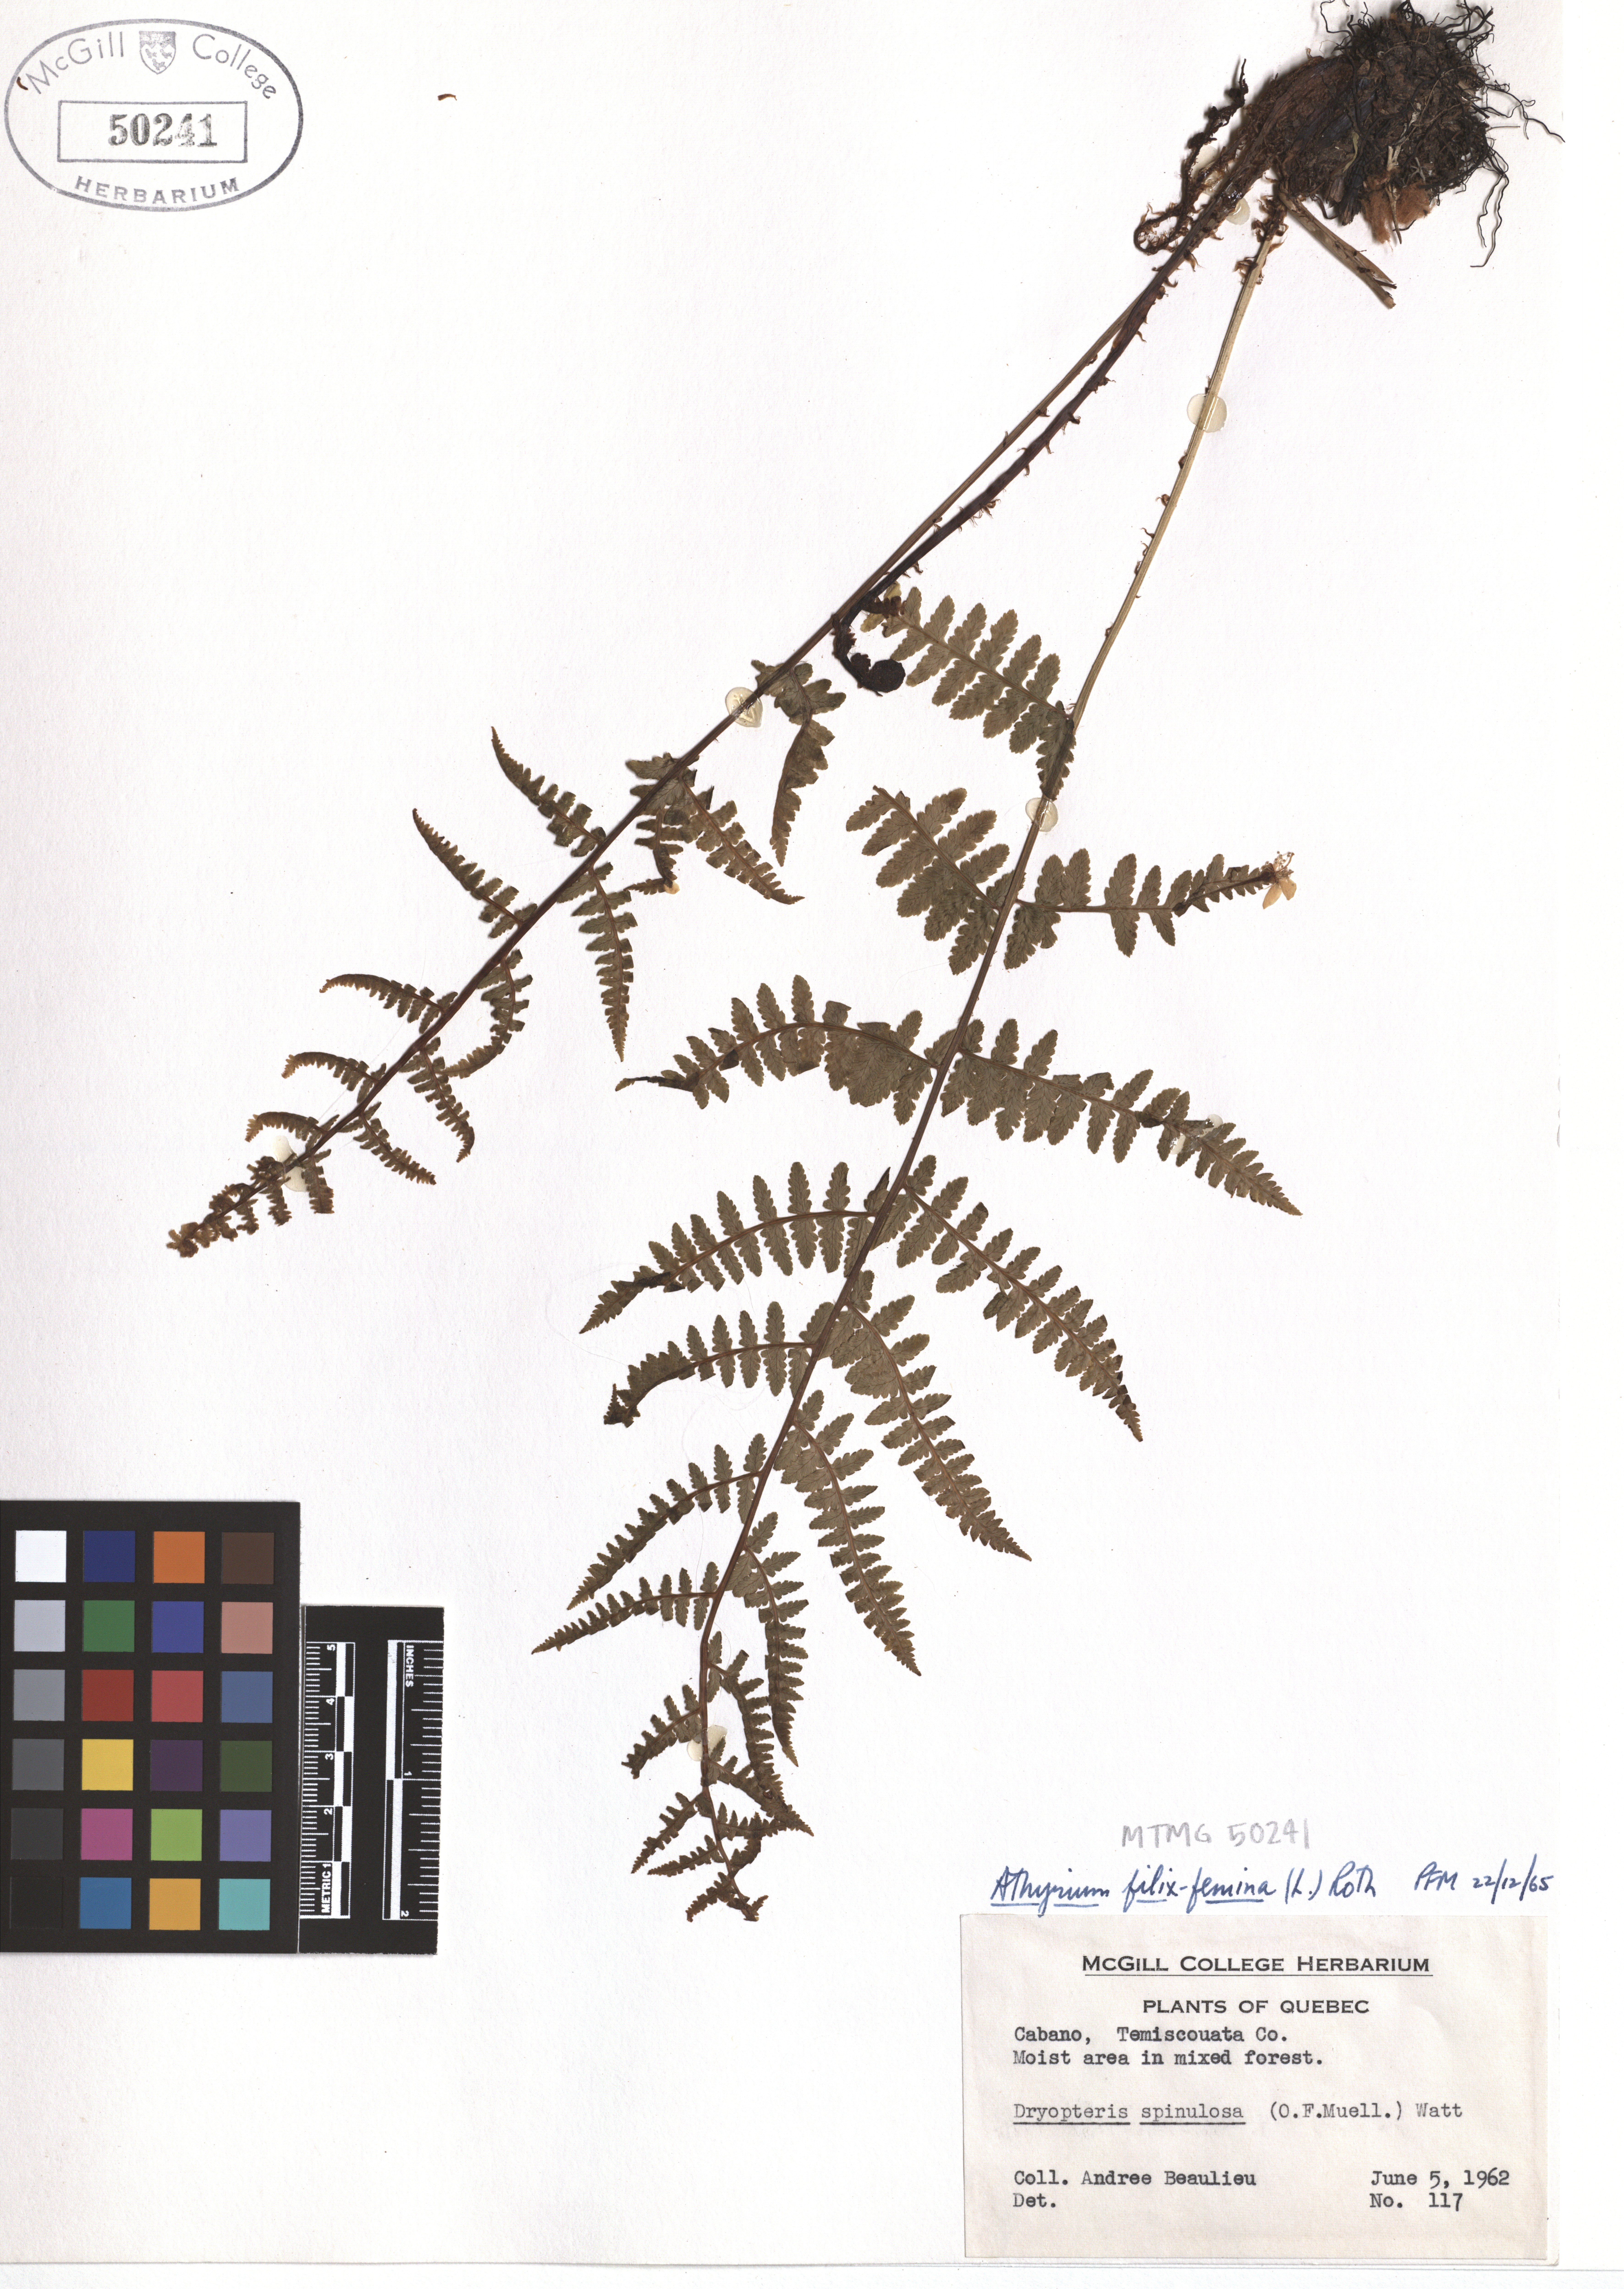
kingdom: Plantae
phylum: Tracheophyta
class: Polypodiopsida
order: Polypodiales
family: Athyriaceae
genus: Athyrium
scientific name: Athyrium filix-femina
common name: Lady fern
